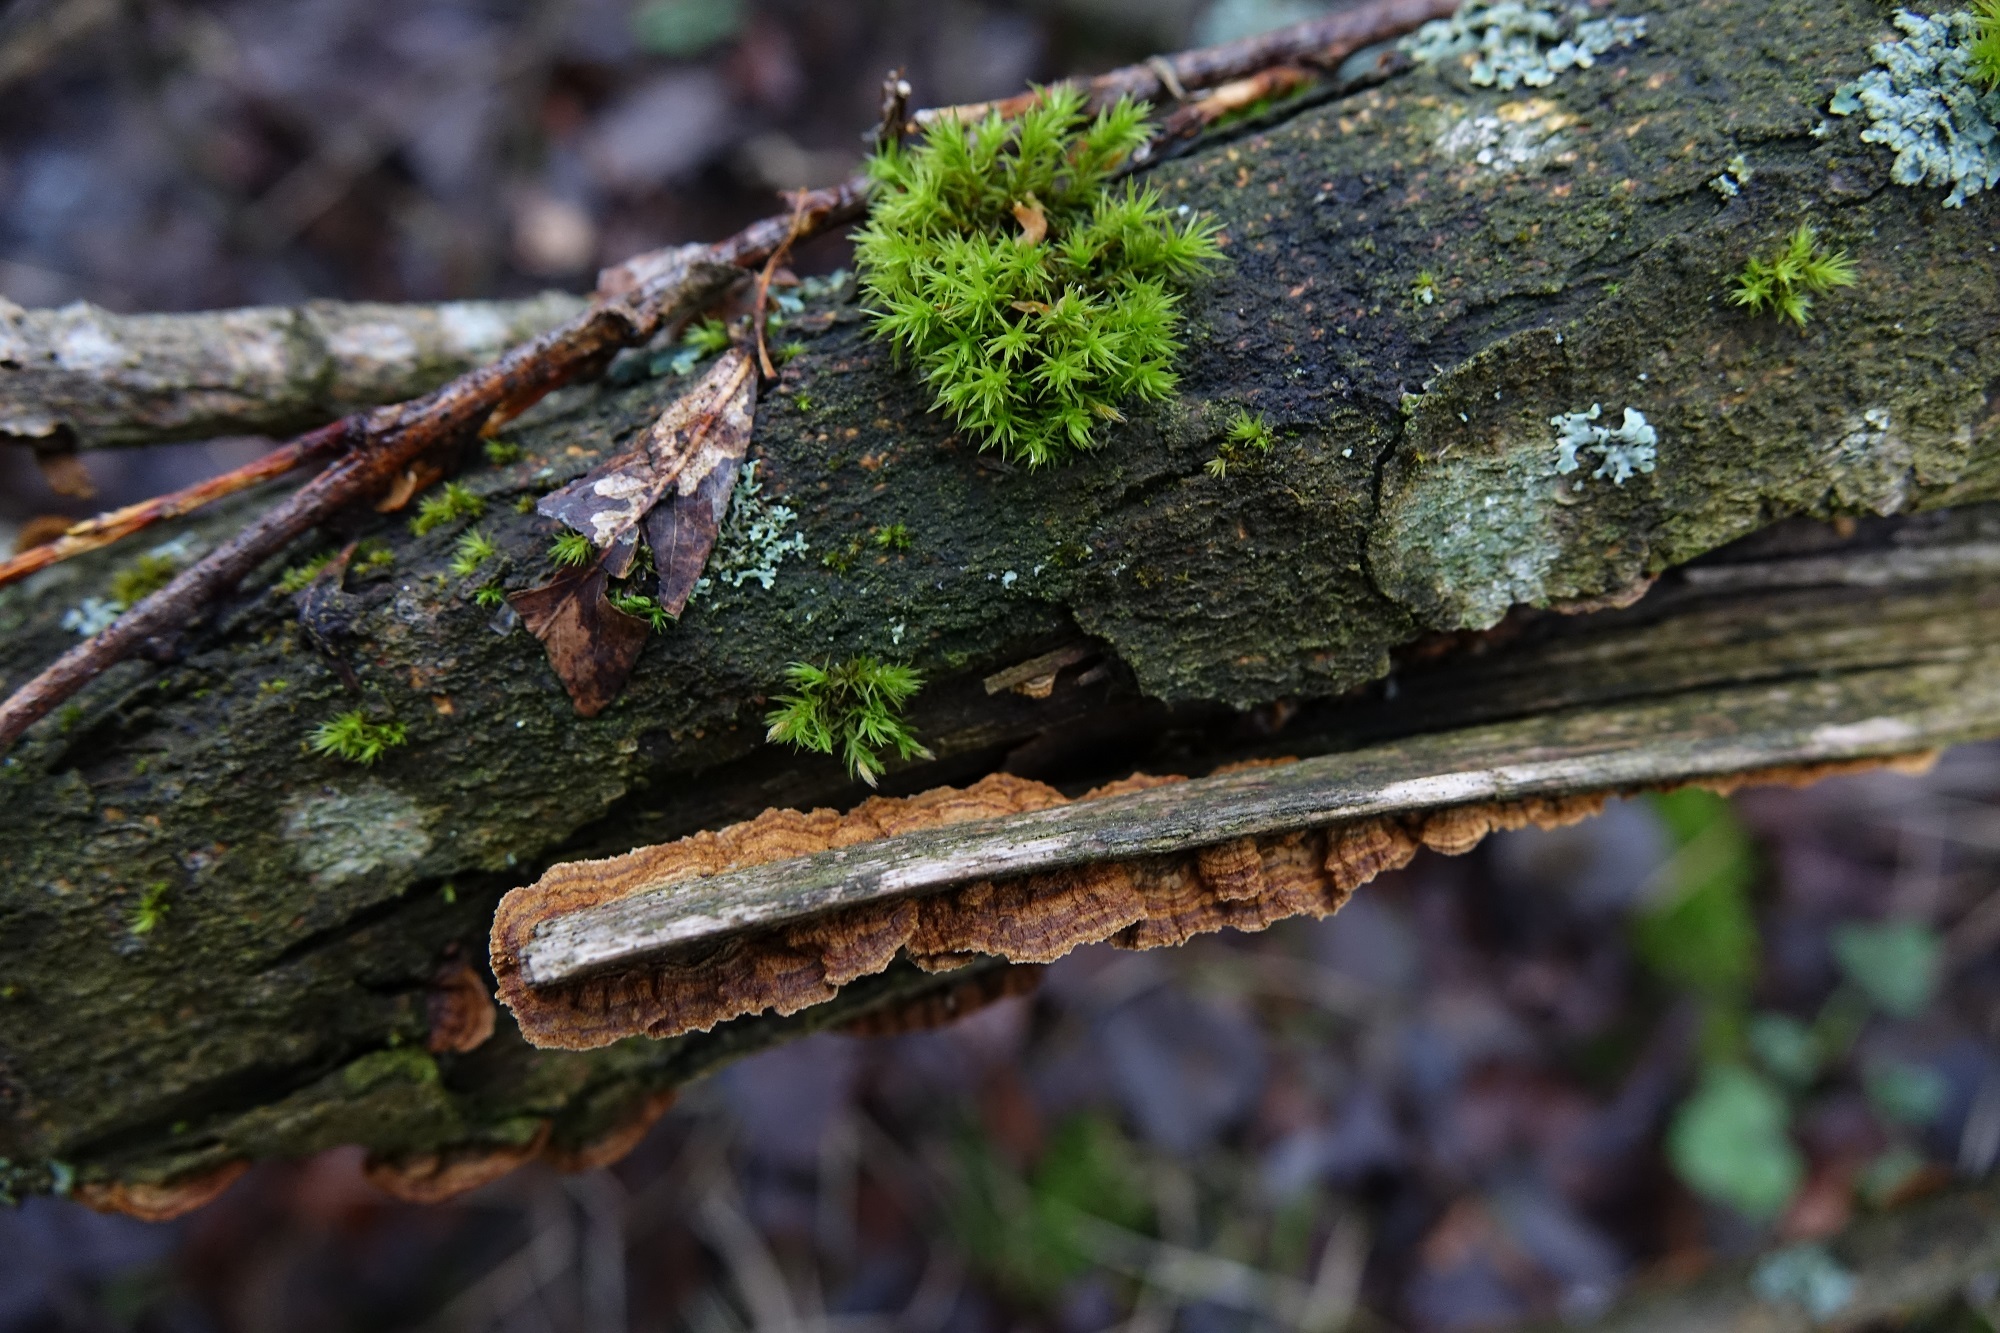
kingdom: Fungi
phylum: Basidiomycota
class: Agaricomycetes
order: Hymenochaetales
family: Hymenochaetaceae
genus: Hydnoporia
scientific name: Hydnoporia tabacina
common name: Willow glue
